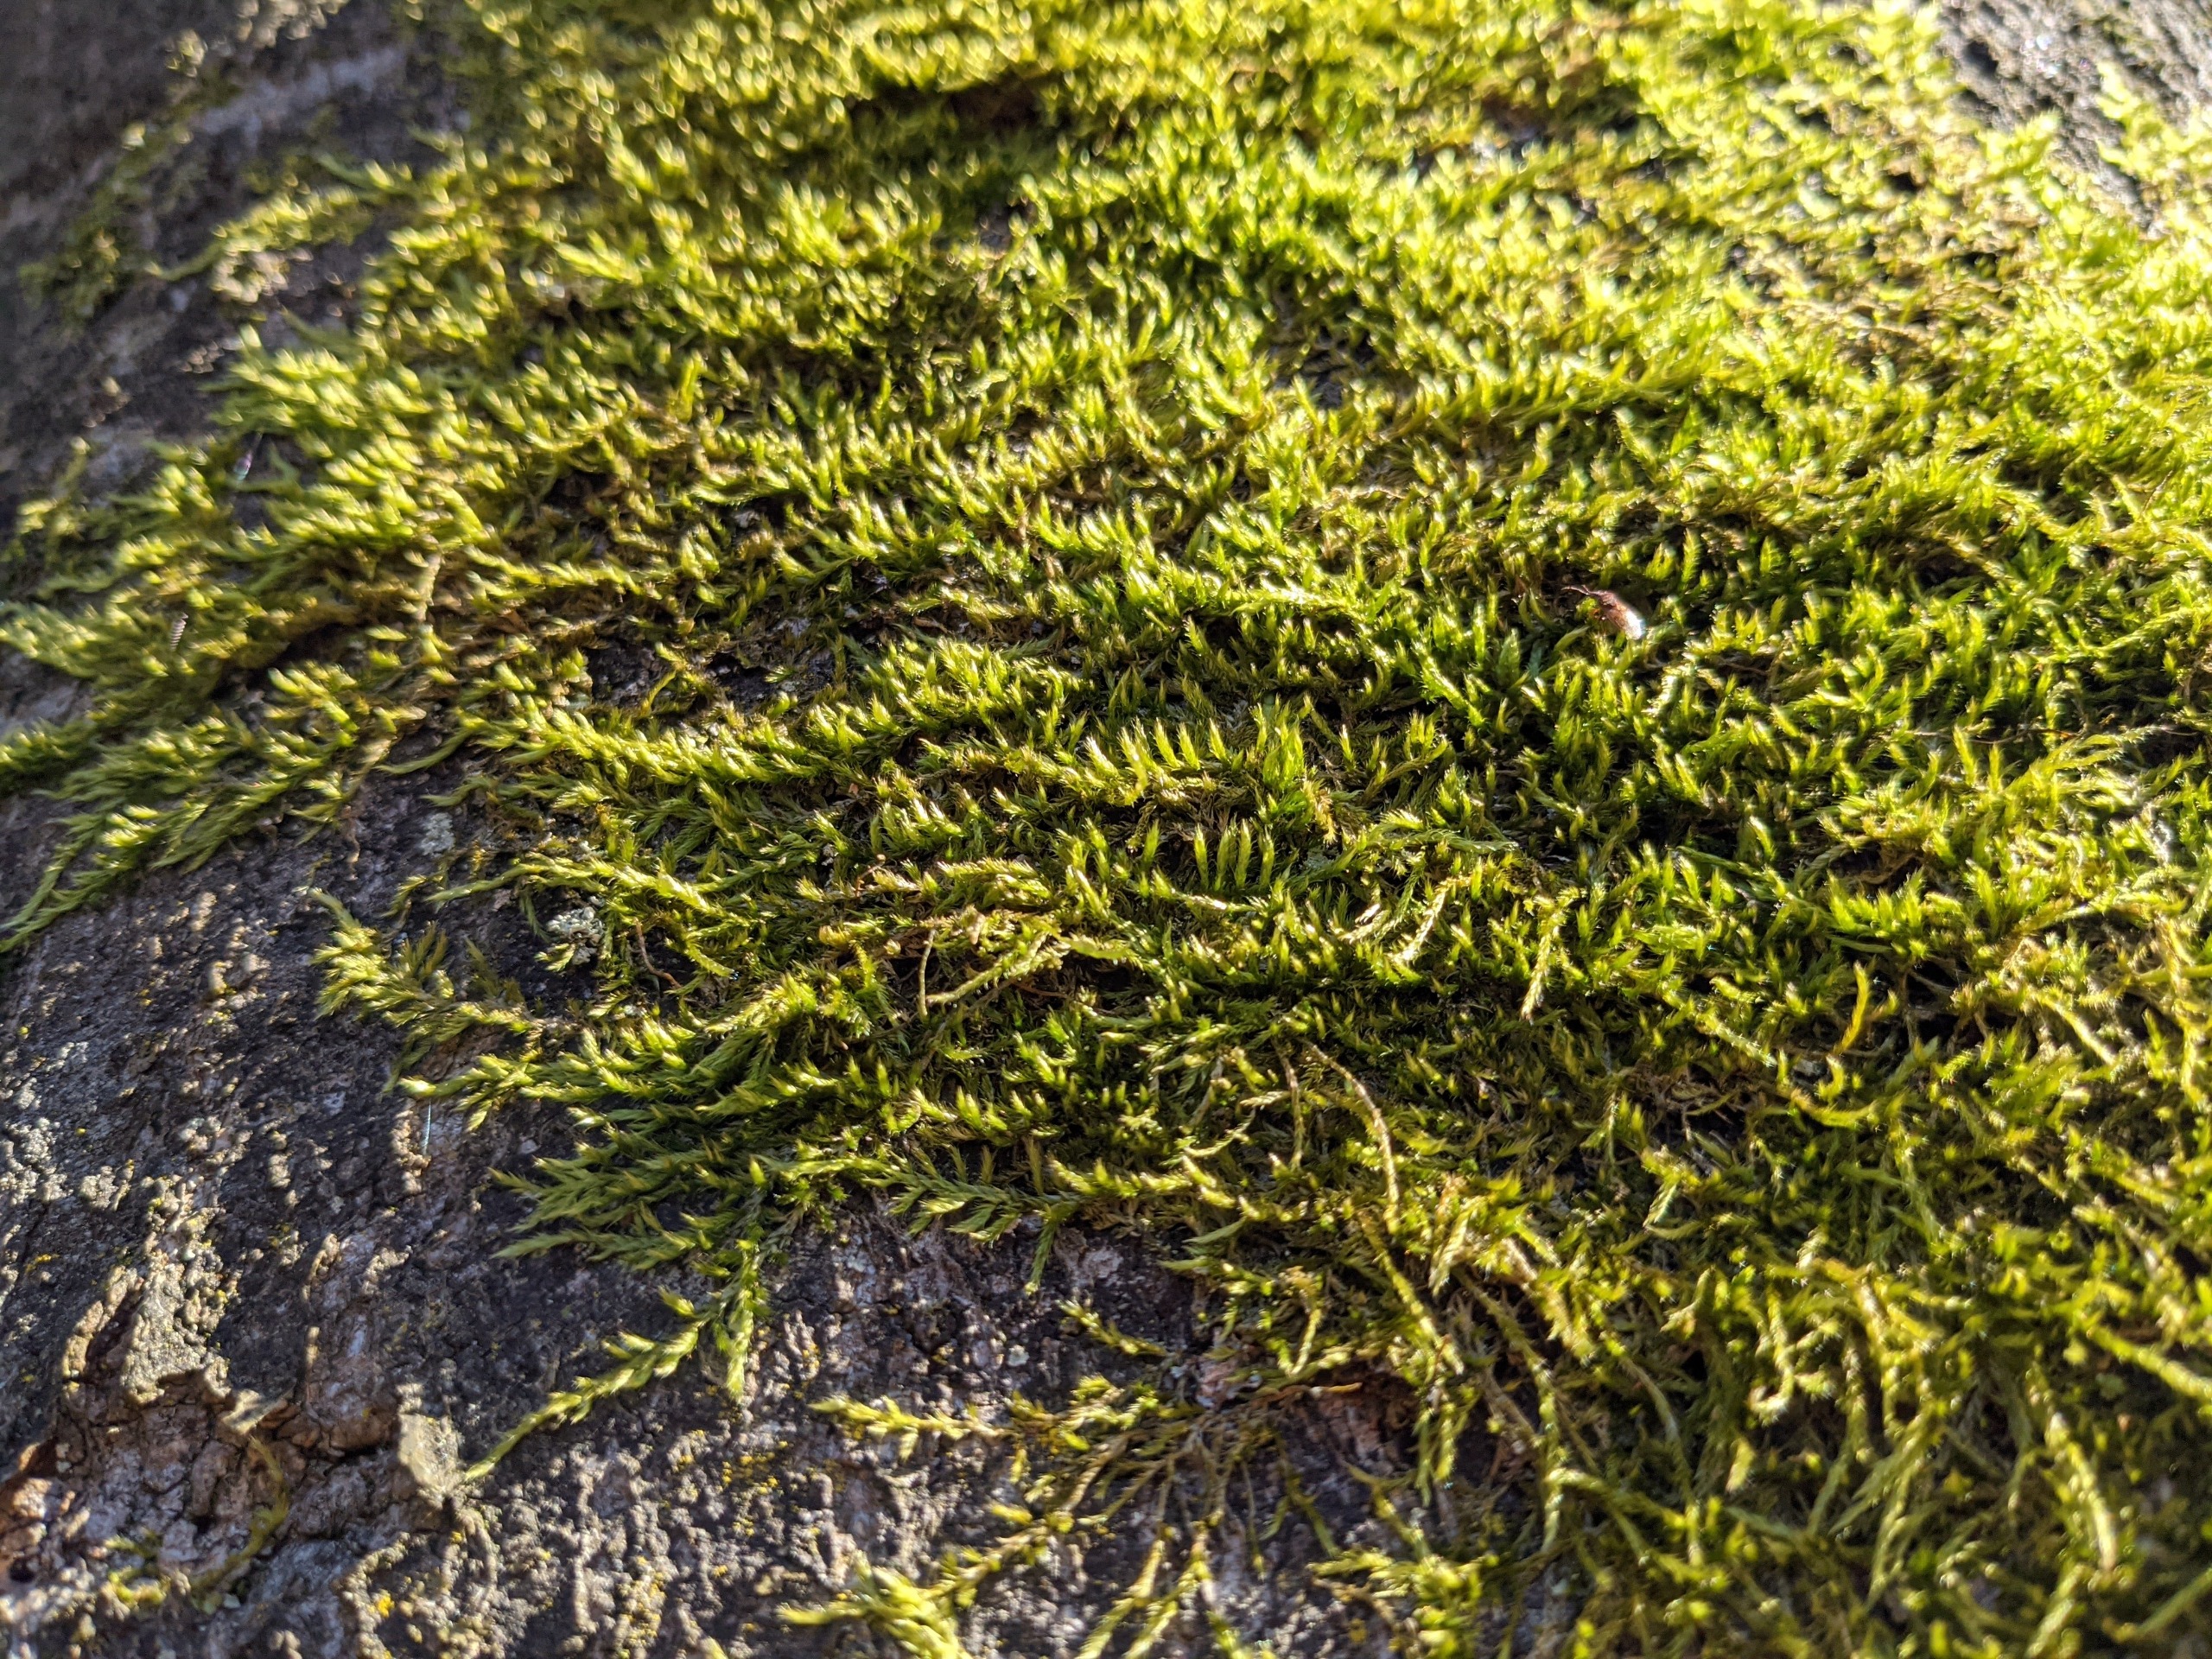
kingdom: Plantae
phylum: Bryophyta
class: Bryopsida
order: Hypnales
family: Hypnaceae
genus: Hypnum
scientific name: Hypnum resupinatum
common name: Ret cypresmos
